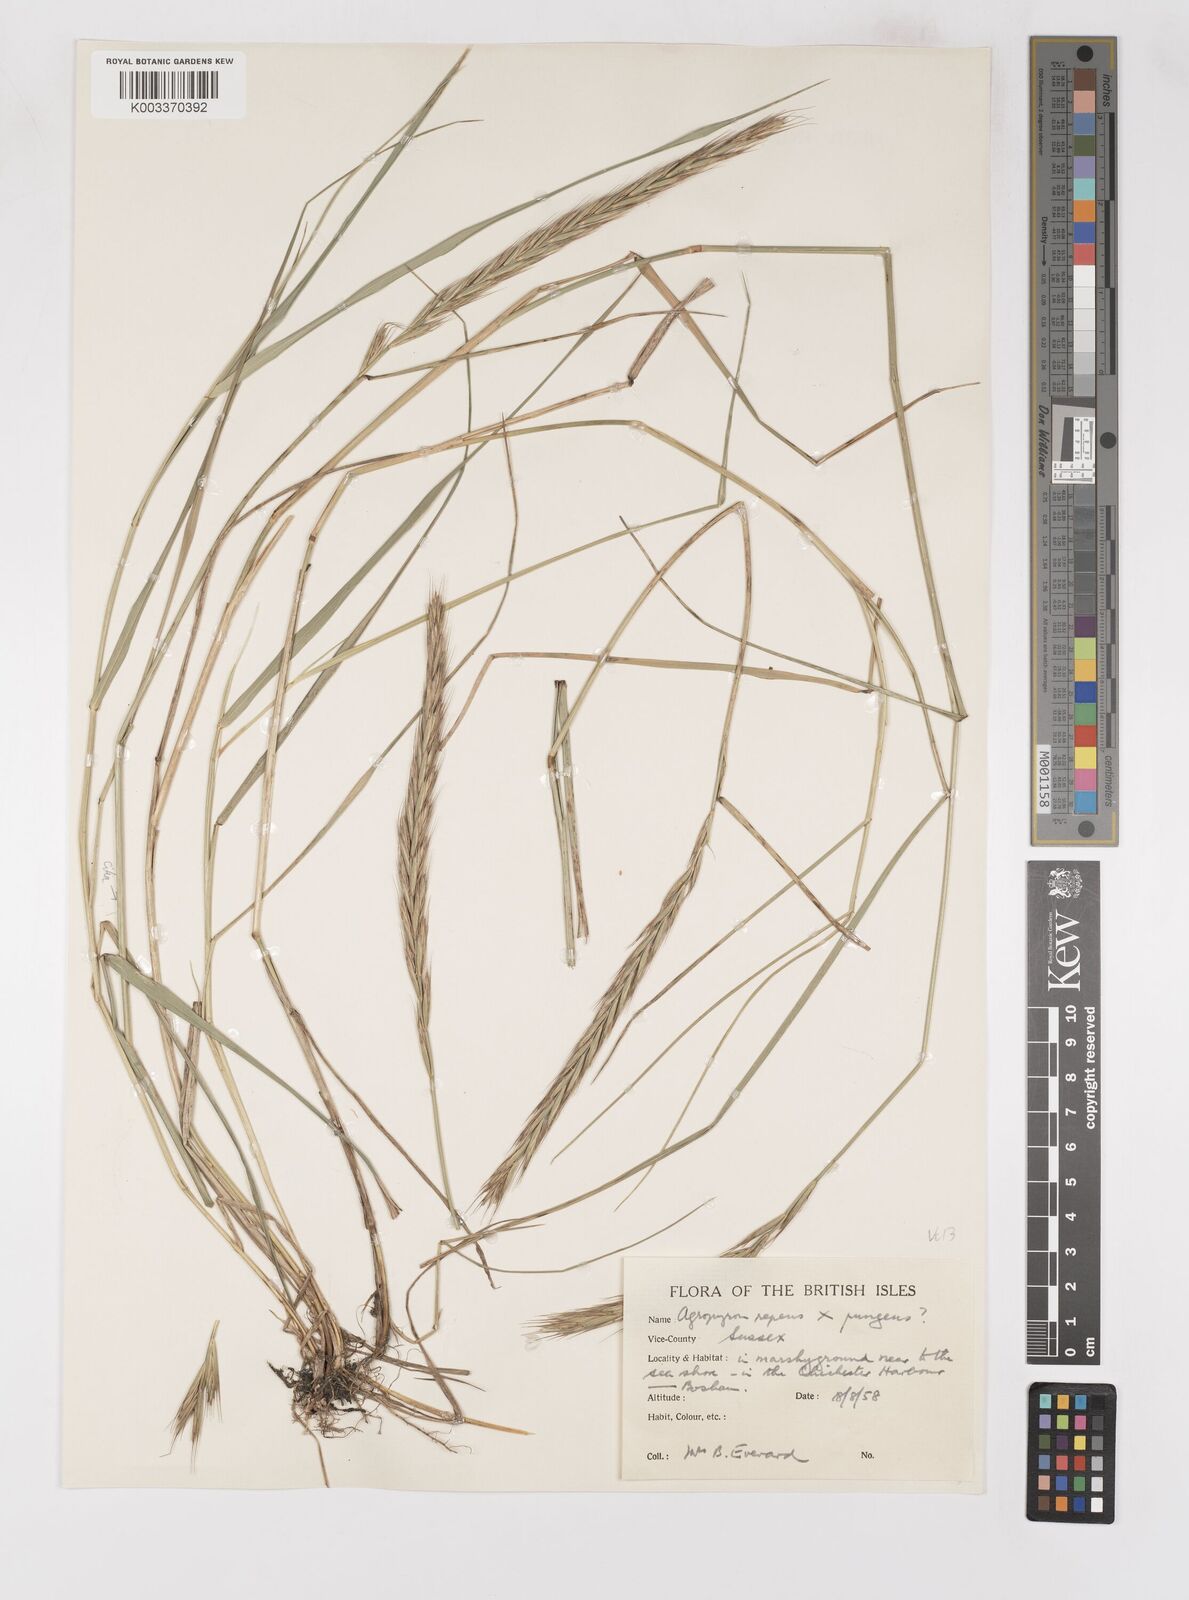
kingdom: Plantae
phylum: Tracheophyta
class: Liliopsida
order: Poales
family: Poaceae
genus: Elymus
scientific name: Elymus oliveri
